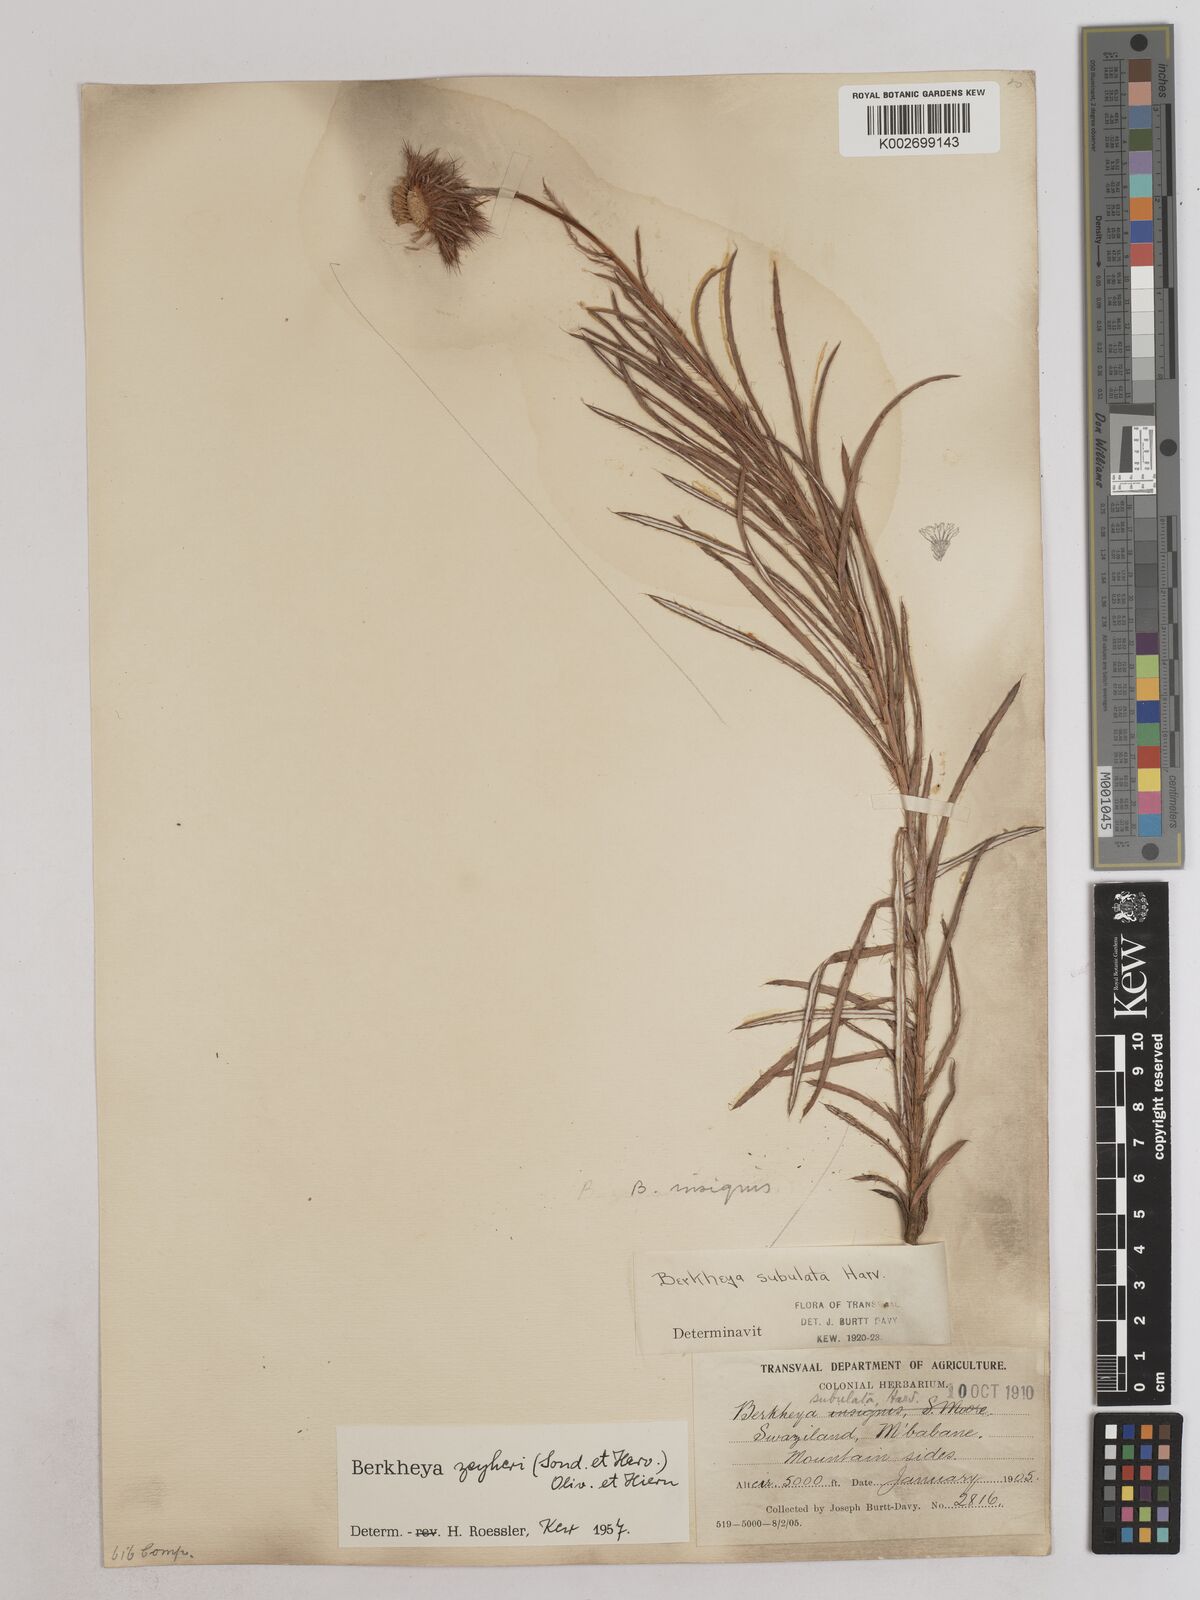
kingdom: Plantae
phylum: Tracheophyta
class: Magnoliopsida
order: Asterales
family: Asteraceae
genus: Berkheya
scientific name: Berkheya insignis
